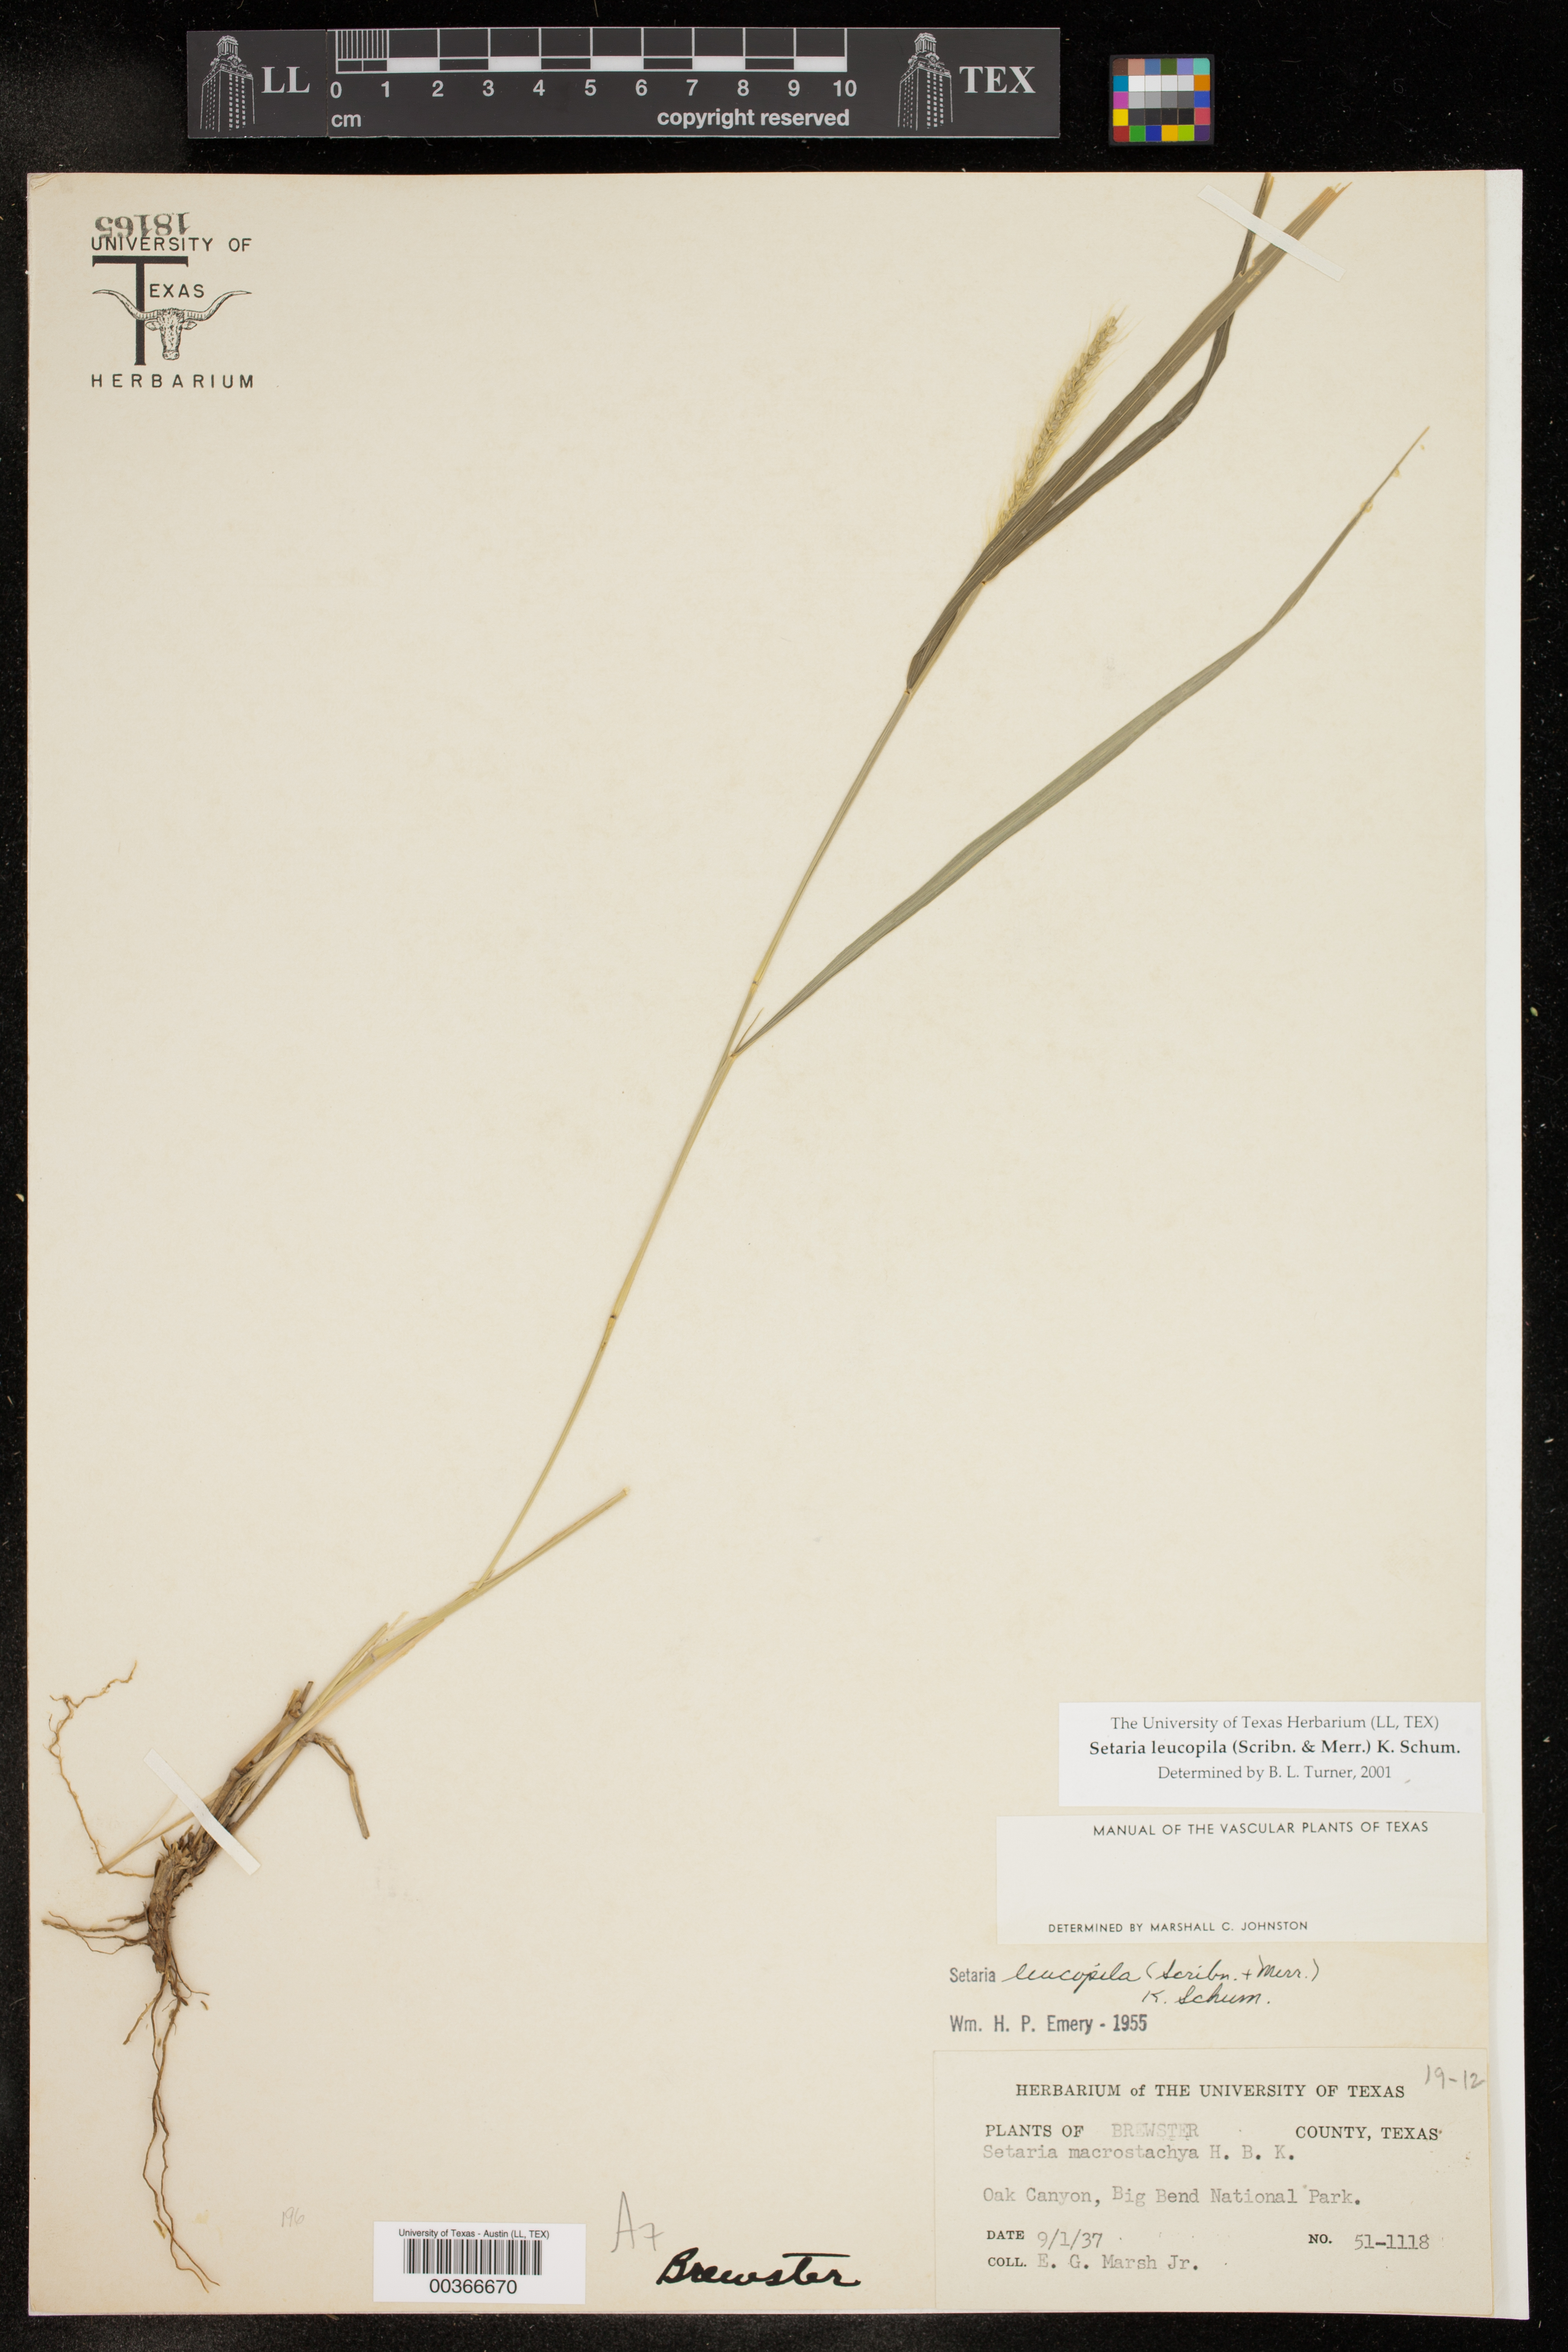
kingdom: Plantae
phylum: Tracheophyta
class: Liliopsida
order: Poales
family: Poaceae
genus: Setaria
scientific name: Setaria leucopila
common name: Plains bristle grass
